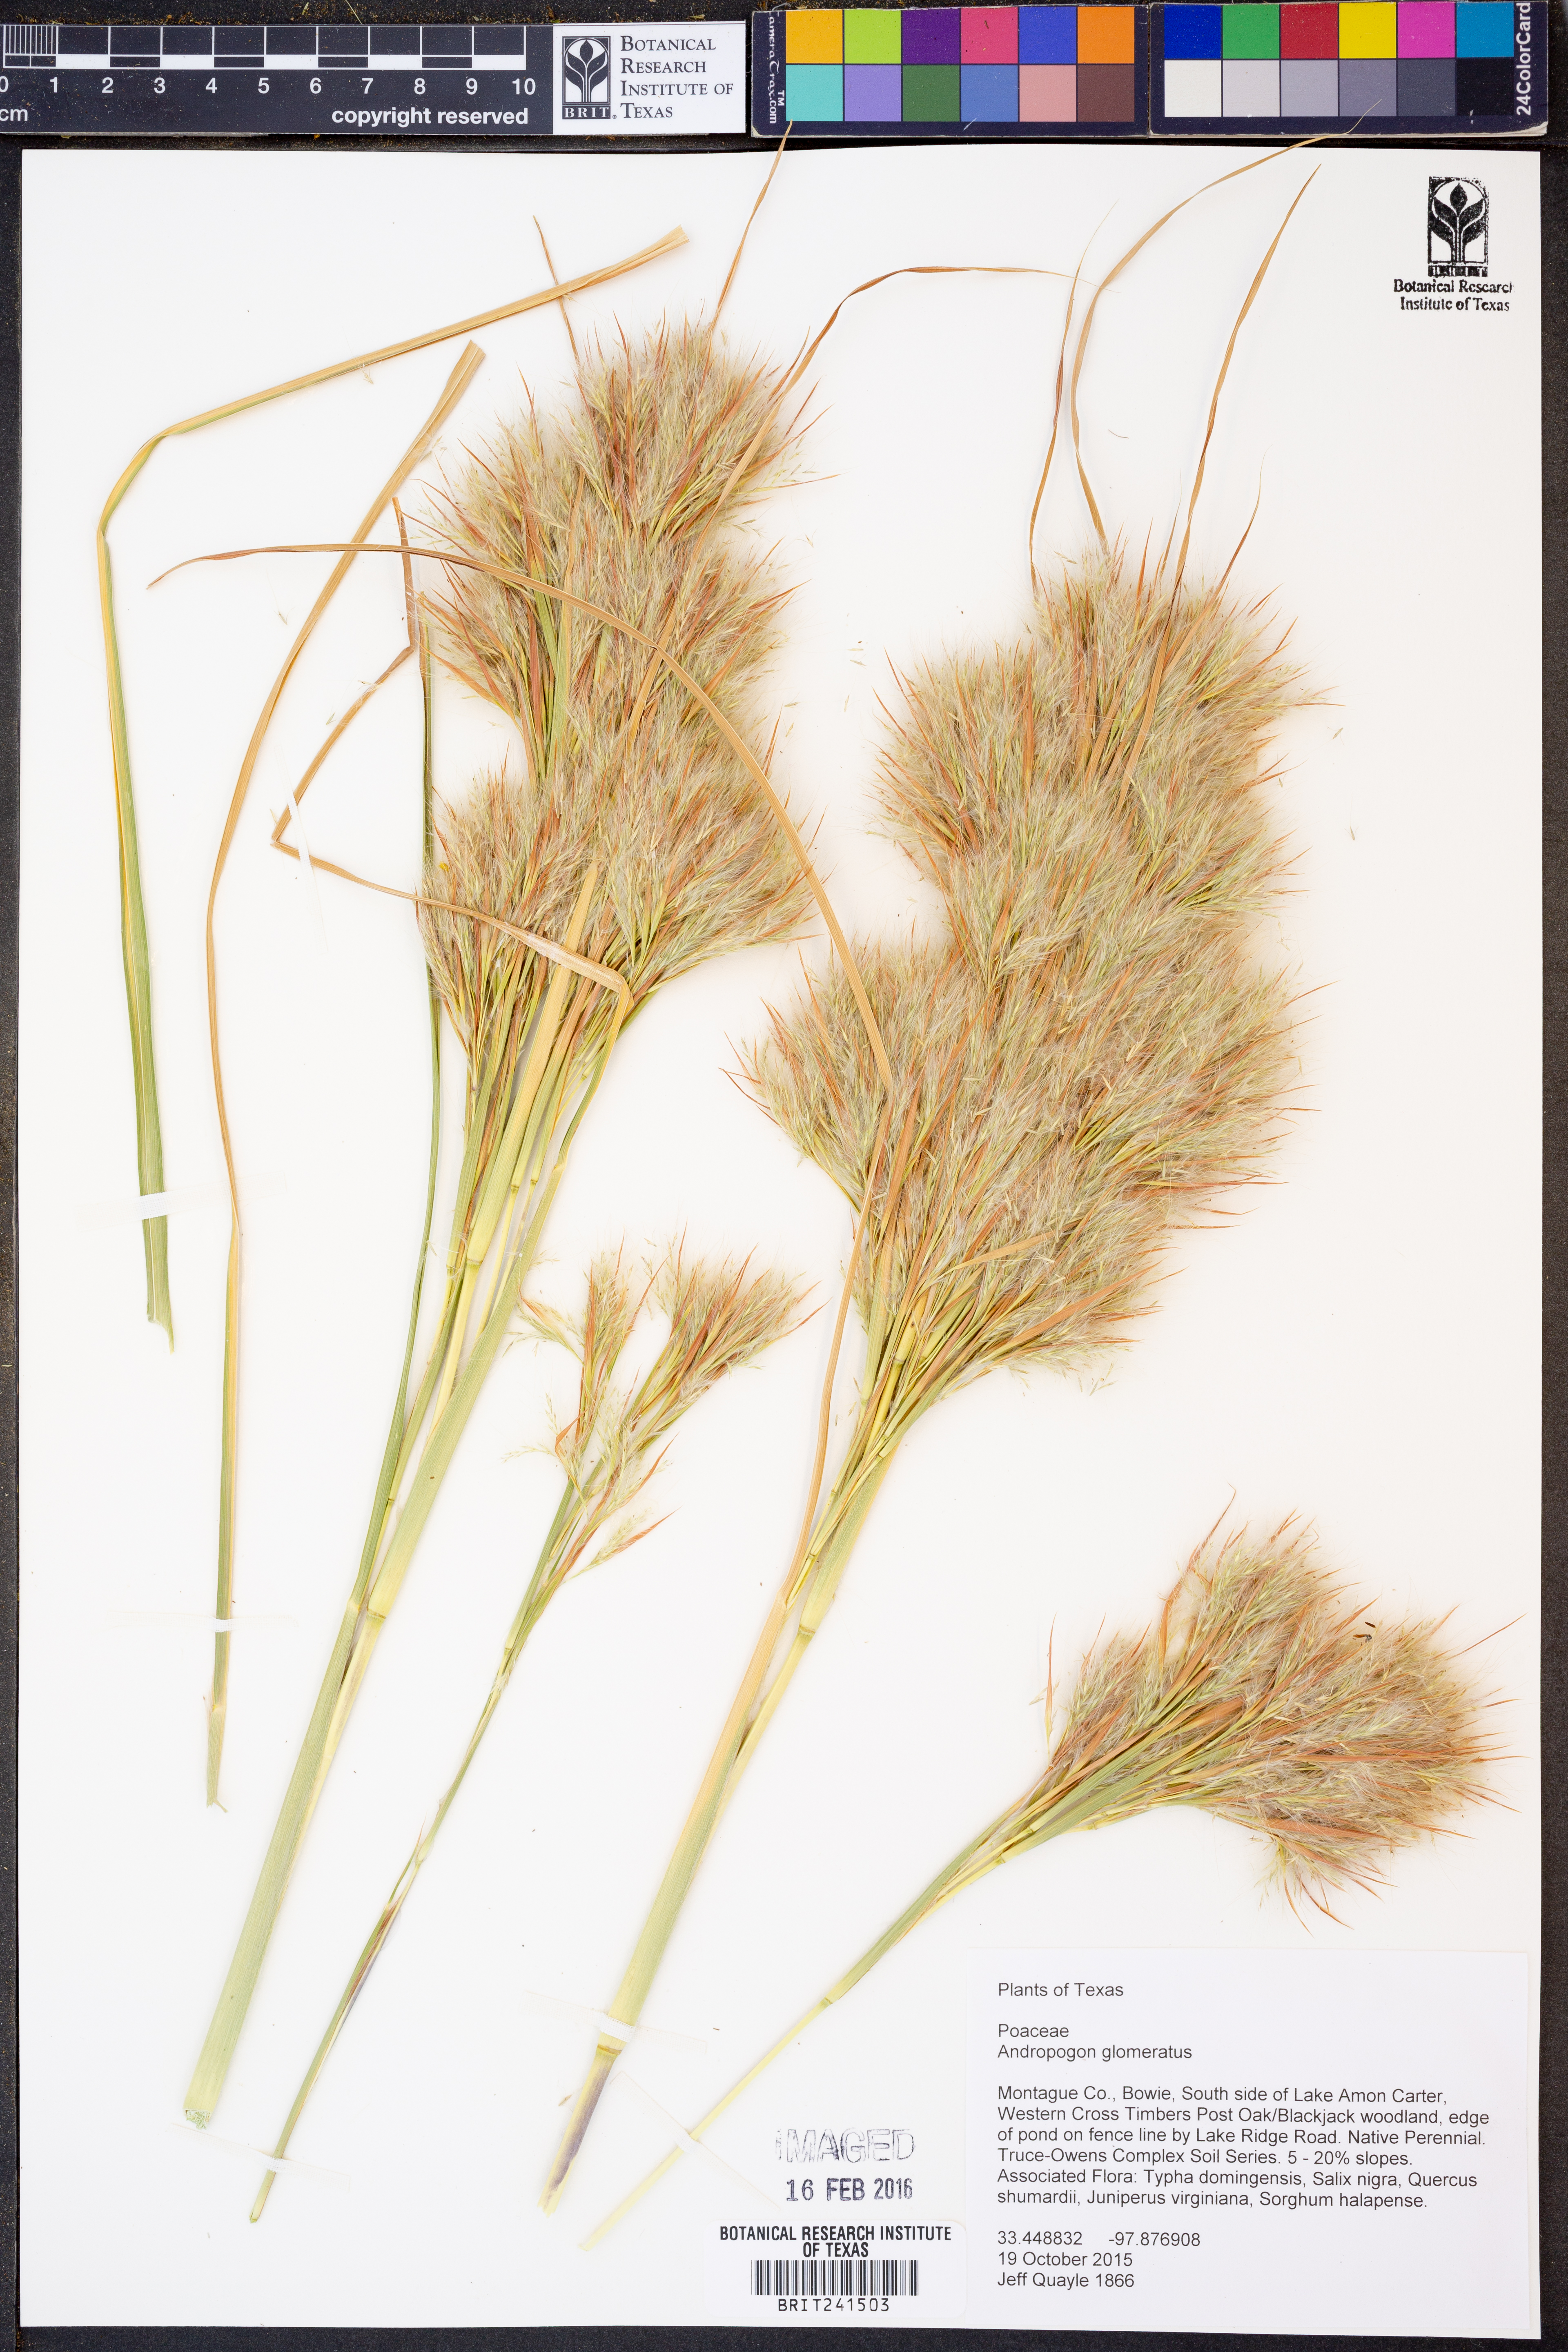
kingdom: Plantae
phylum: Tracheophyta
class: Liliopsida
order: Poales
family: Poaceae
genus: Andropogon
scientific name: Andropogon glomeratus
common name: Bushy beard grass
